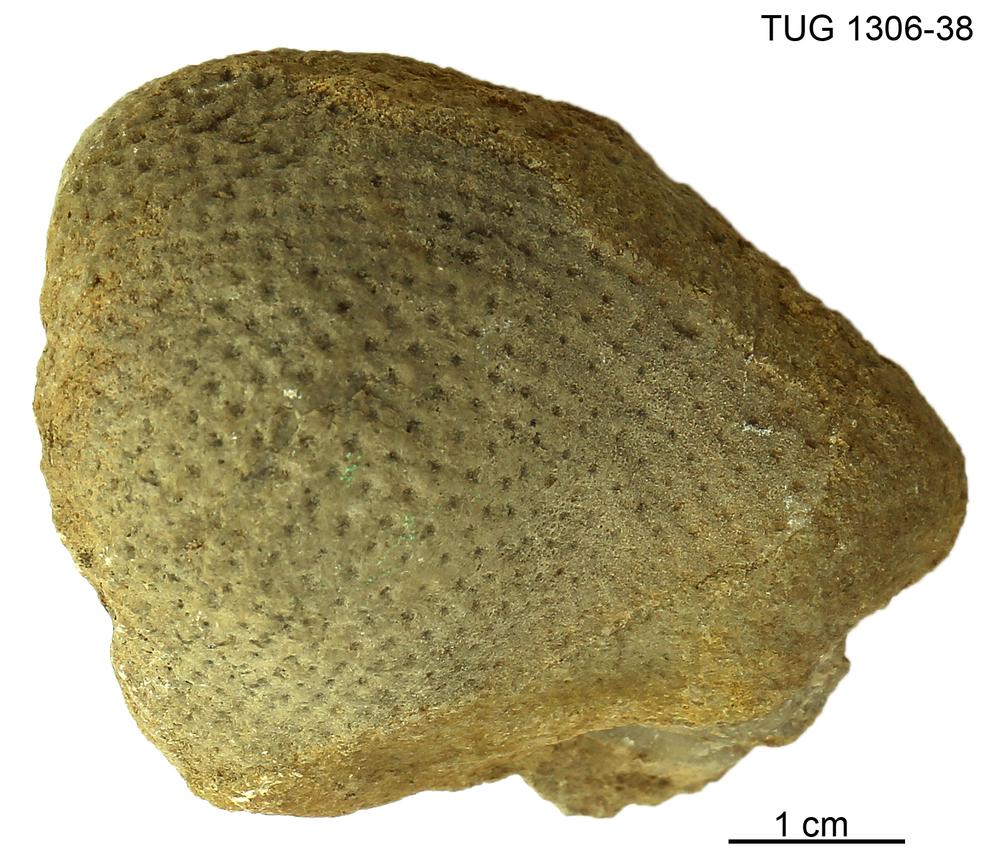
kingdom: Plantae
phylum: Chlorophyta
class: Chlorophyceae
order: Receptaculitales
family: Receptaculitaceae
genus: Ischadites
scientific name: Ischadites
